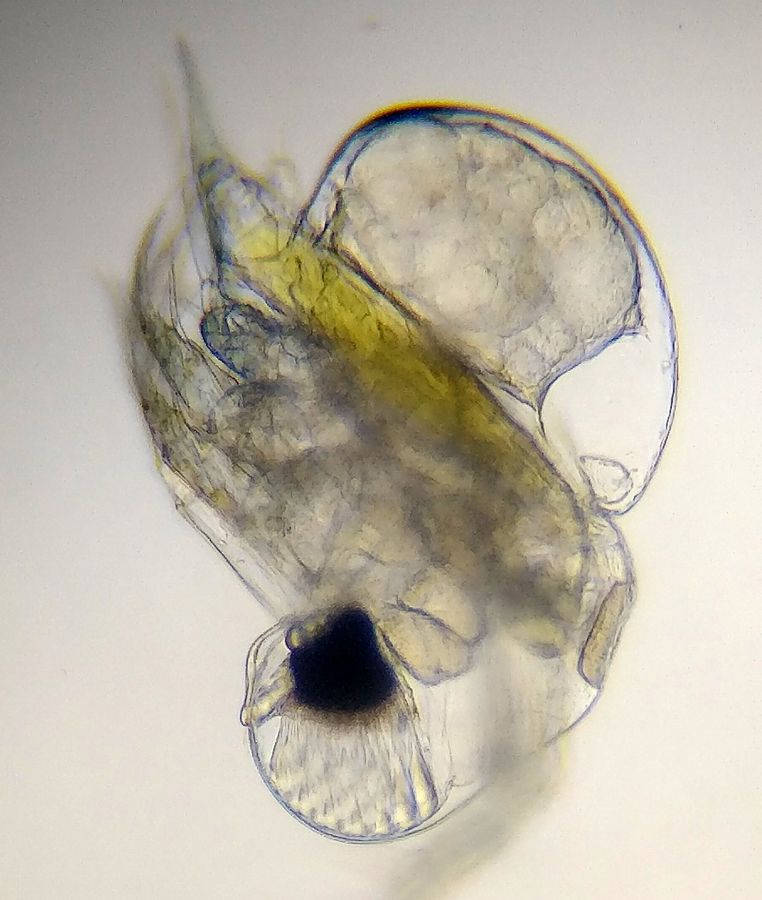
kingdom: Animalia
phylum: Arthropoda
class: Branchiopoda
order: Diplostraca
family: Podonidae
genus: Podon
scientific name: Podon leuckarti
